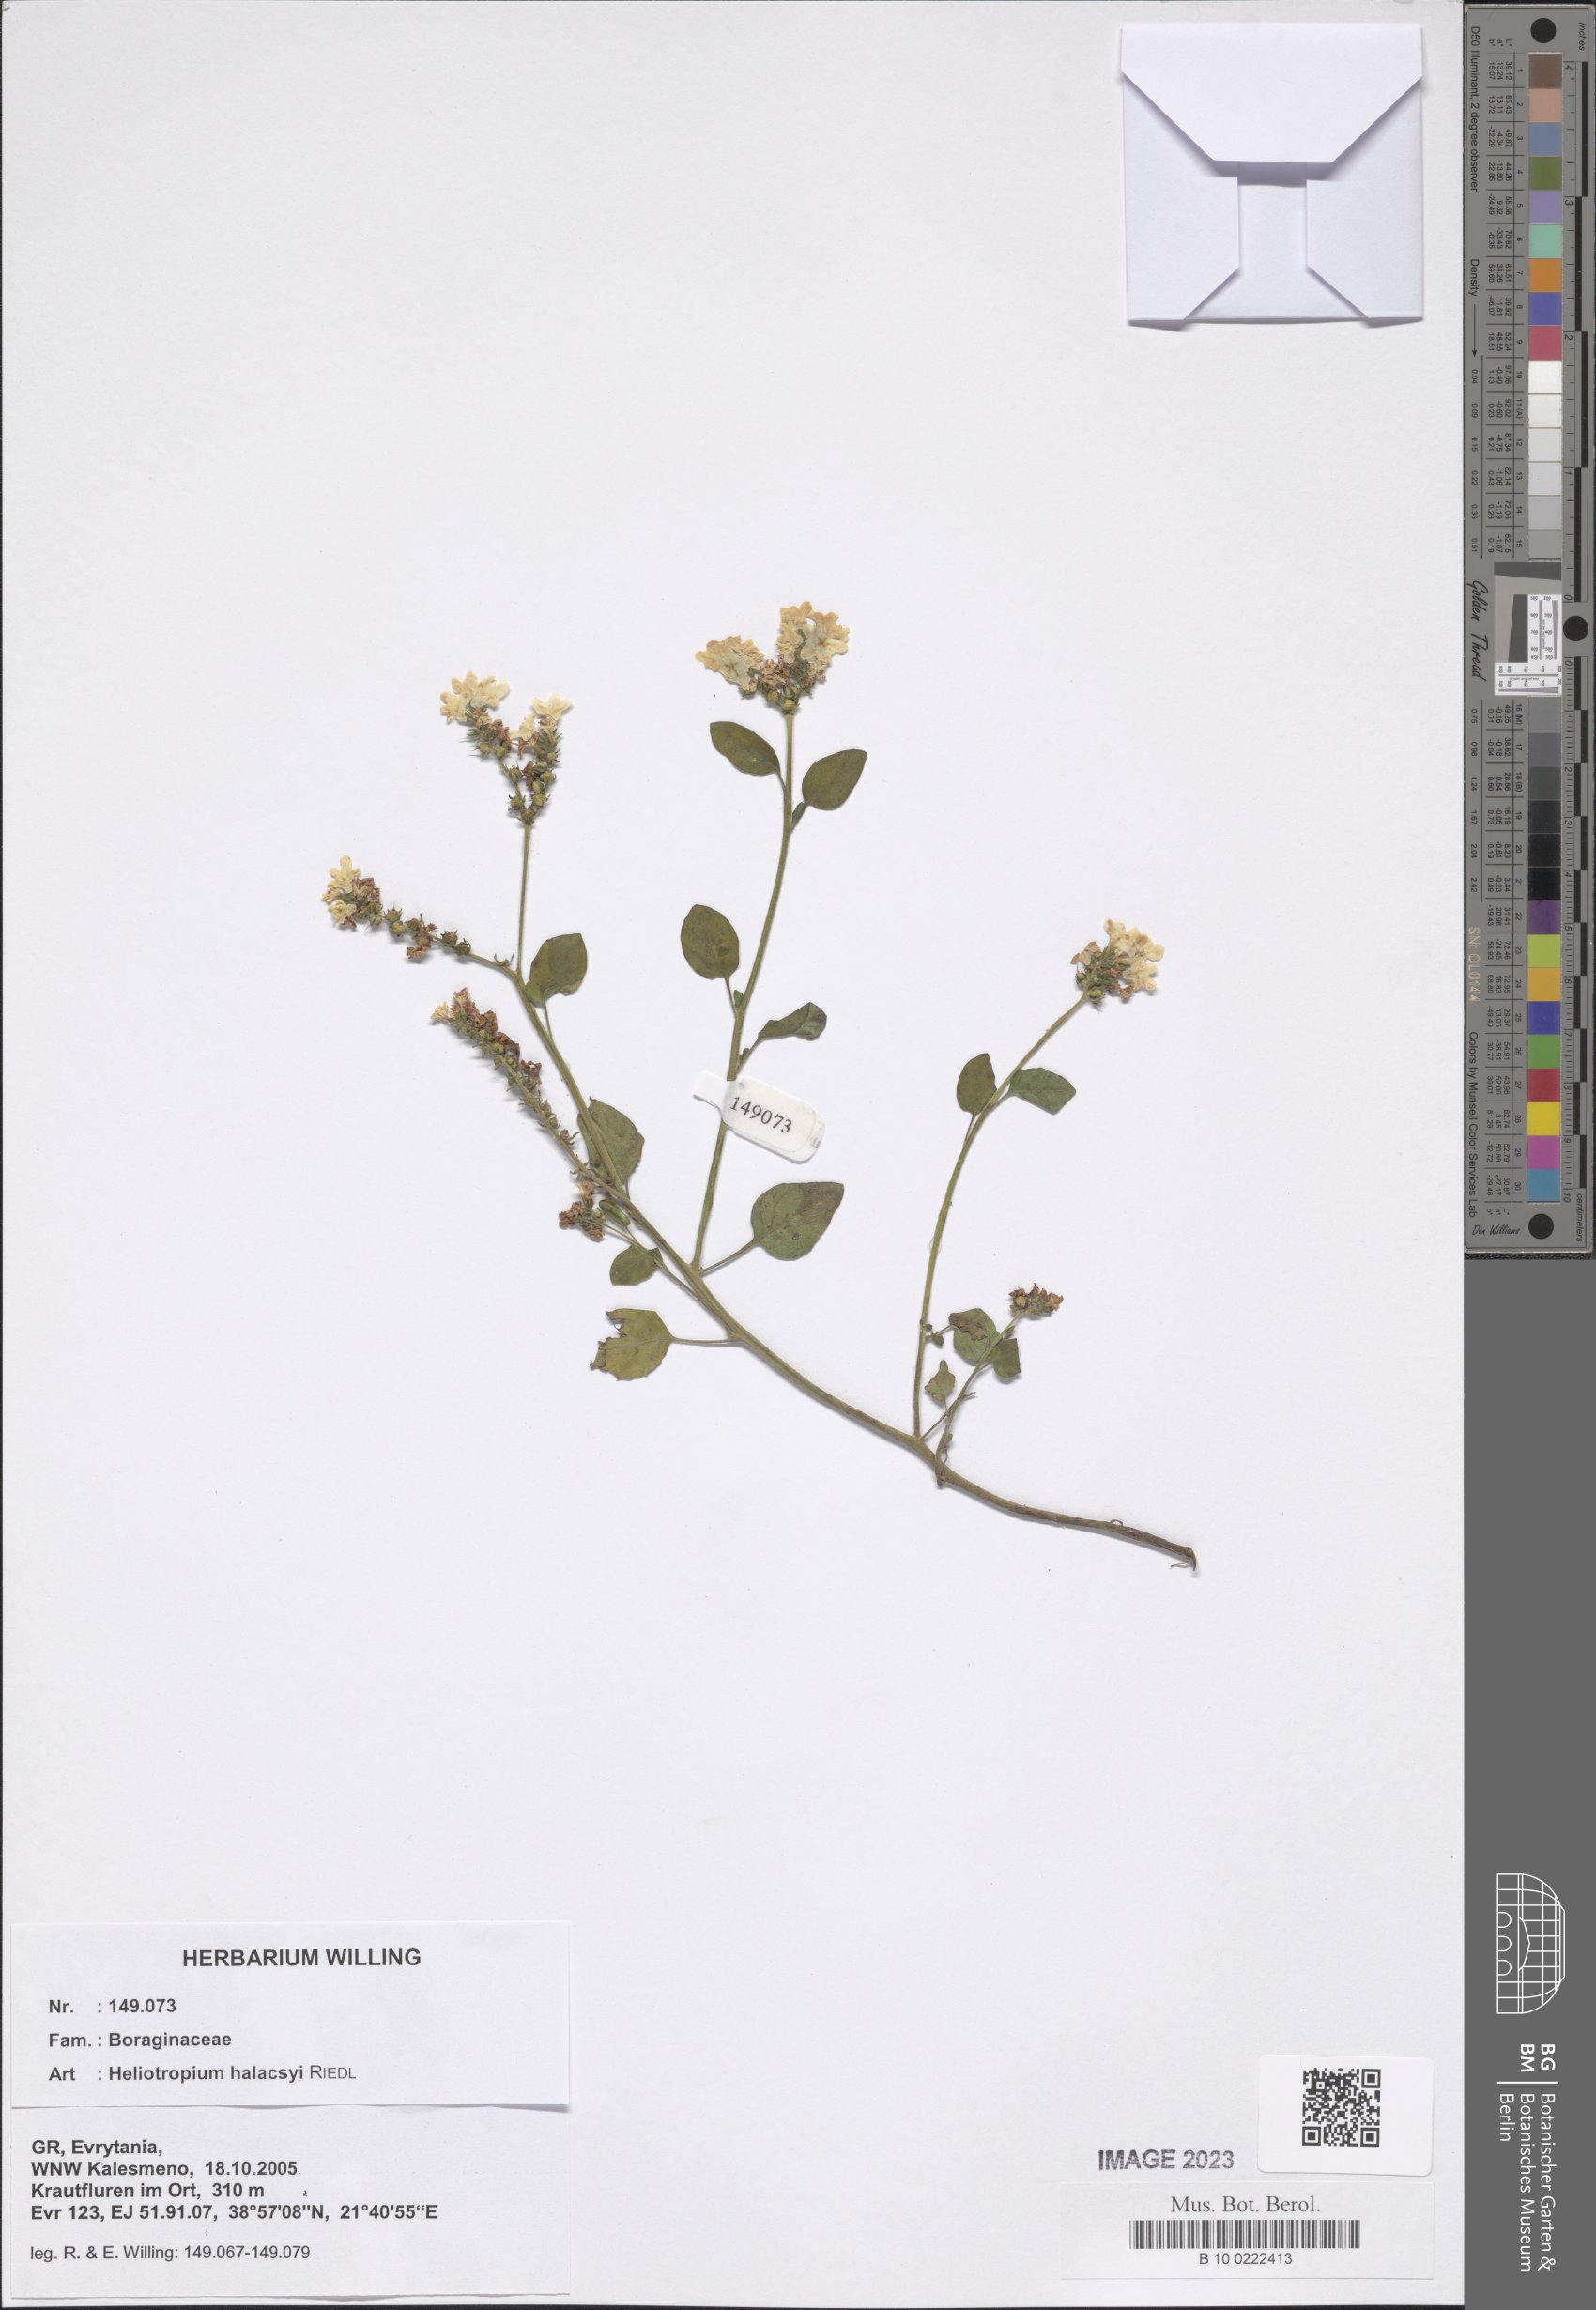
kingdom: Plantae
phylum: Tracheophyta
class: Magnoliopsida
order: Boraginales
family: Heliotropiaceae
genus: Heliotropium
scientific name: Heliotropium halacsyi
